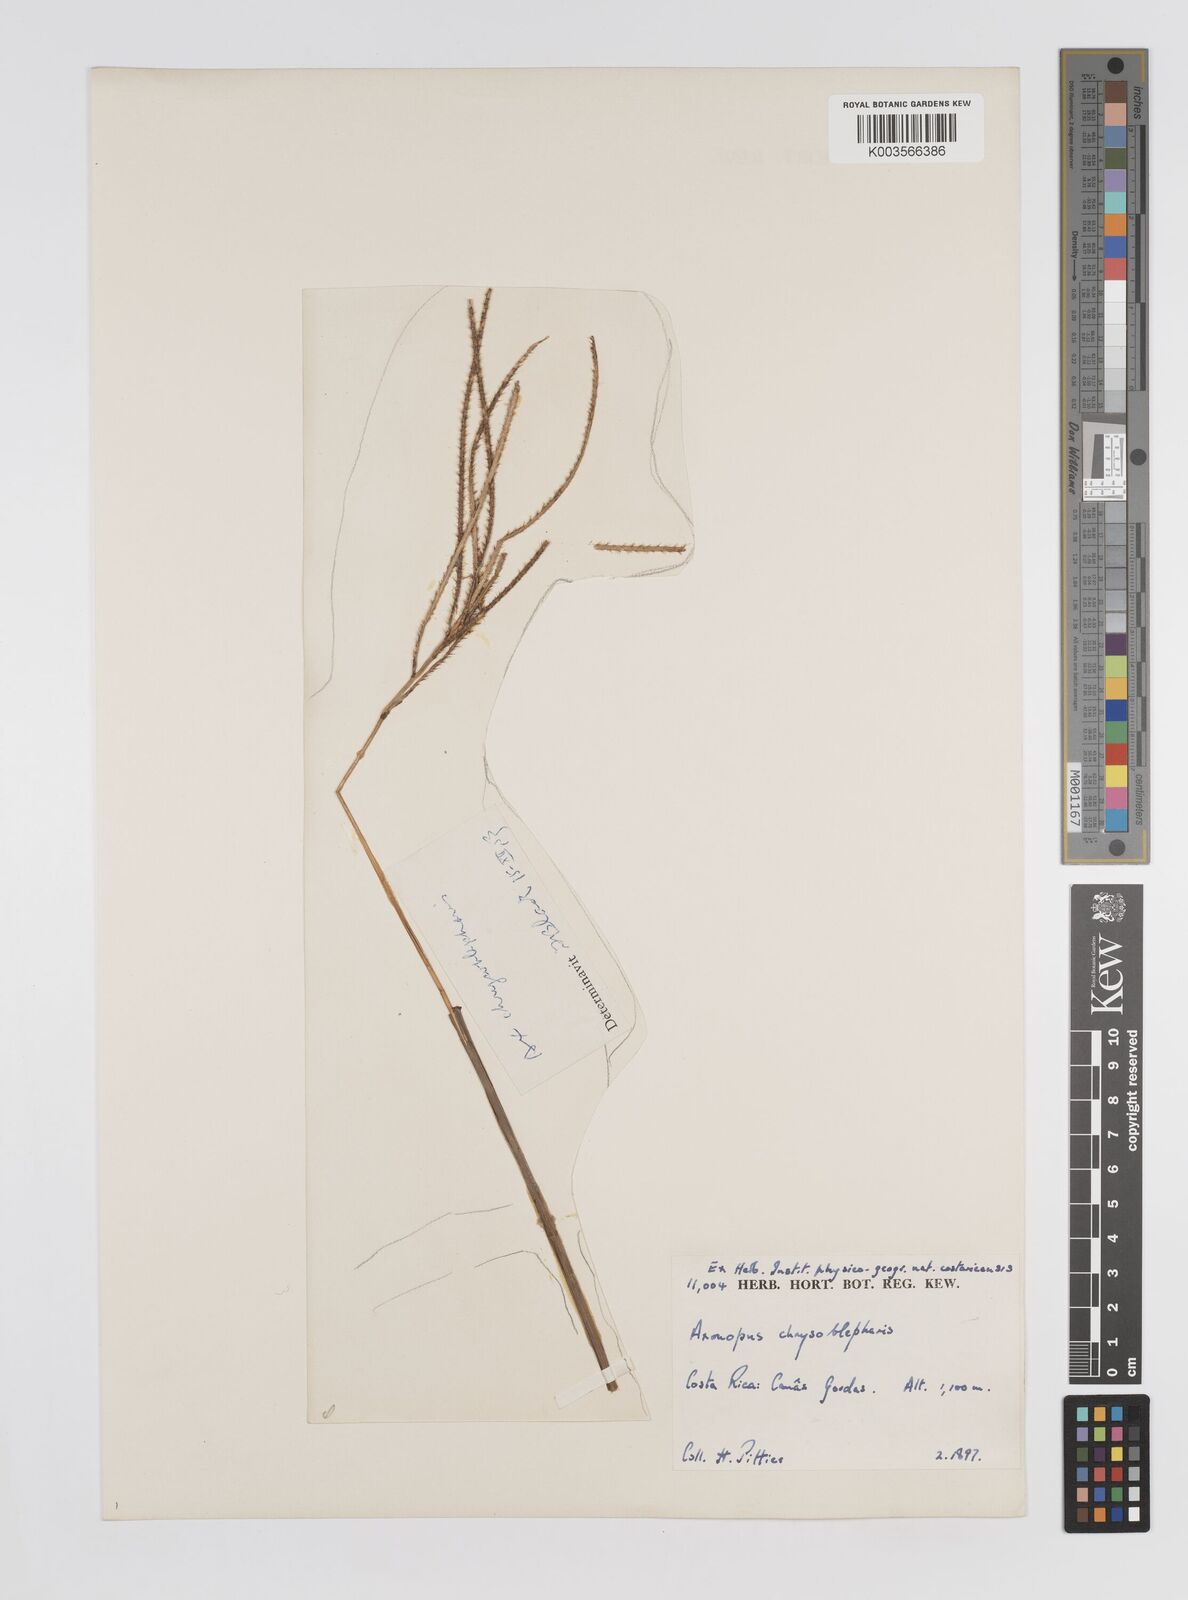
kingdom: Plantae
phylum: Tracheophyta
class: Liliopsida
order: Poales
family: Poaceae
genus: Axonopus
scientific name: Axonopus chrysoblepharis
